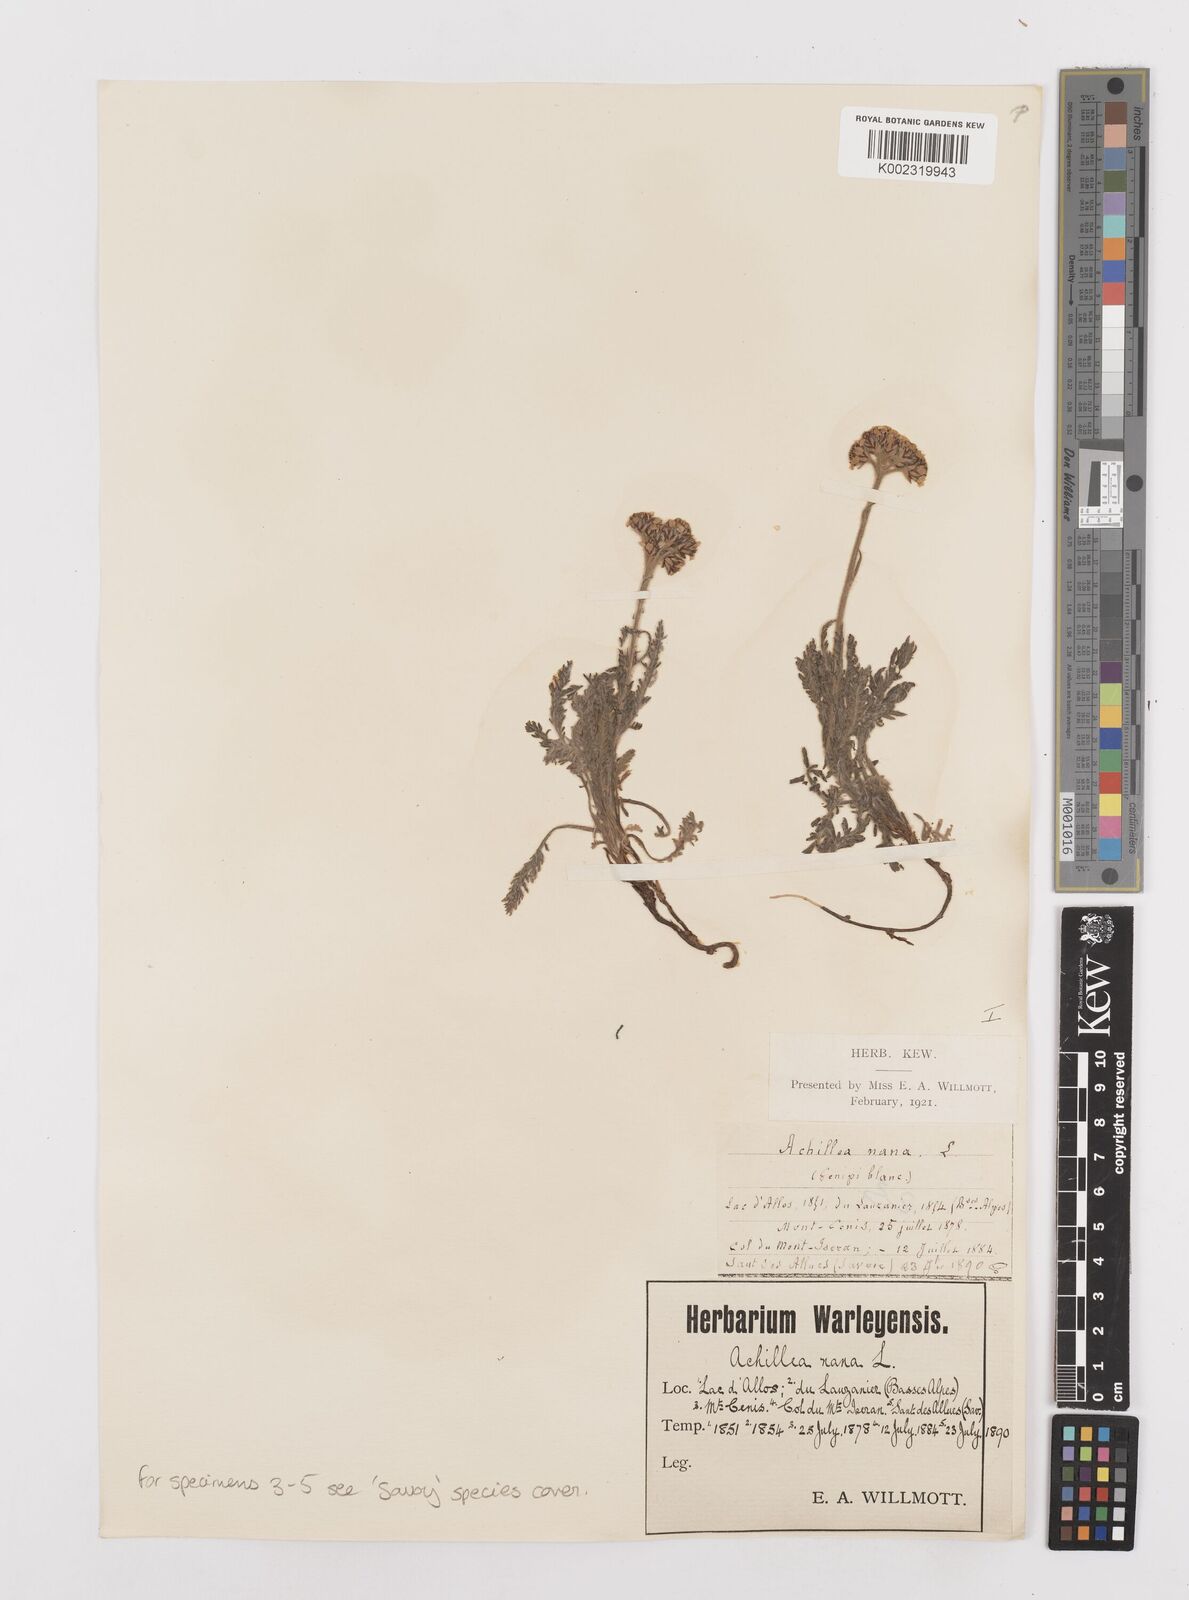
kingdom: Plantae
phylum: Tracheophyta
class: Magnoliopsida
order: Asterales
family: Asteraceae
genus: Achillea
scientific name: Achillea
